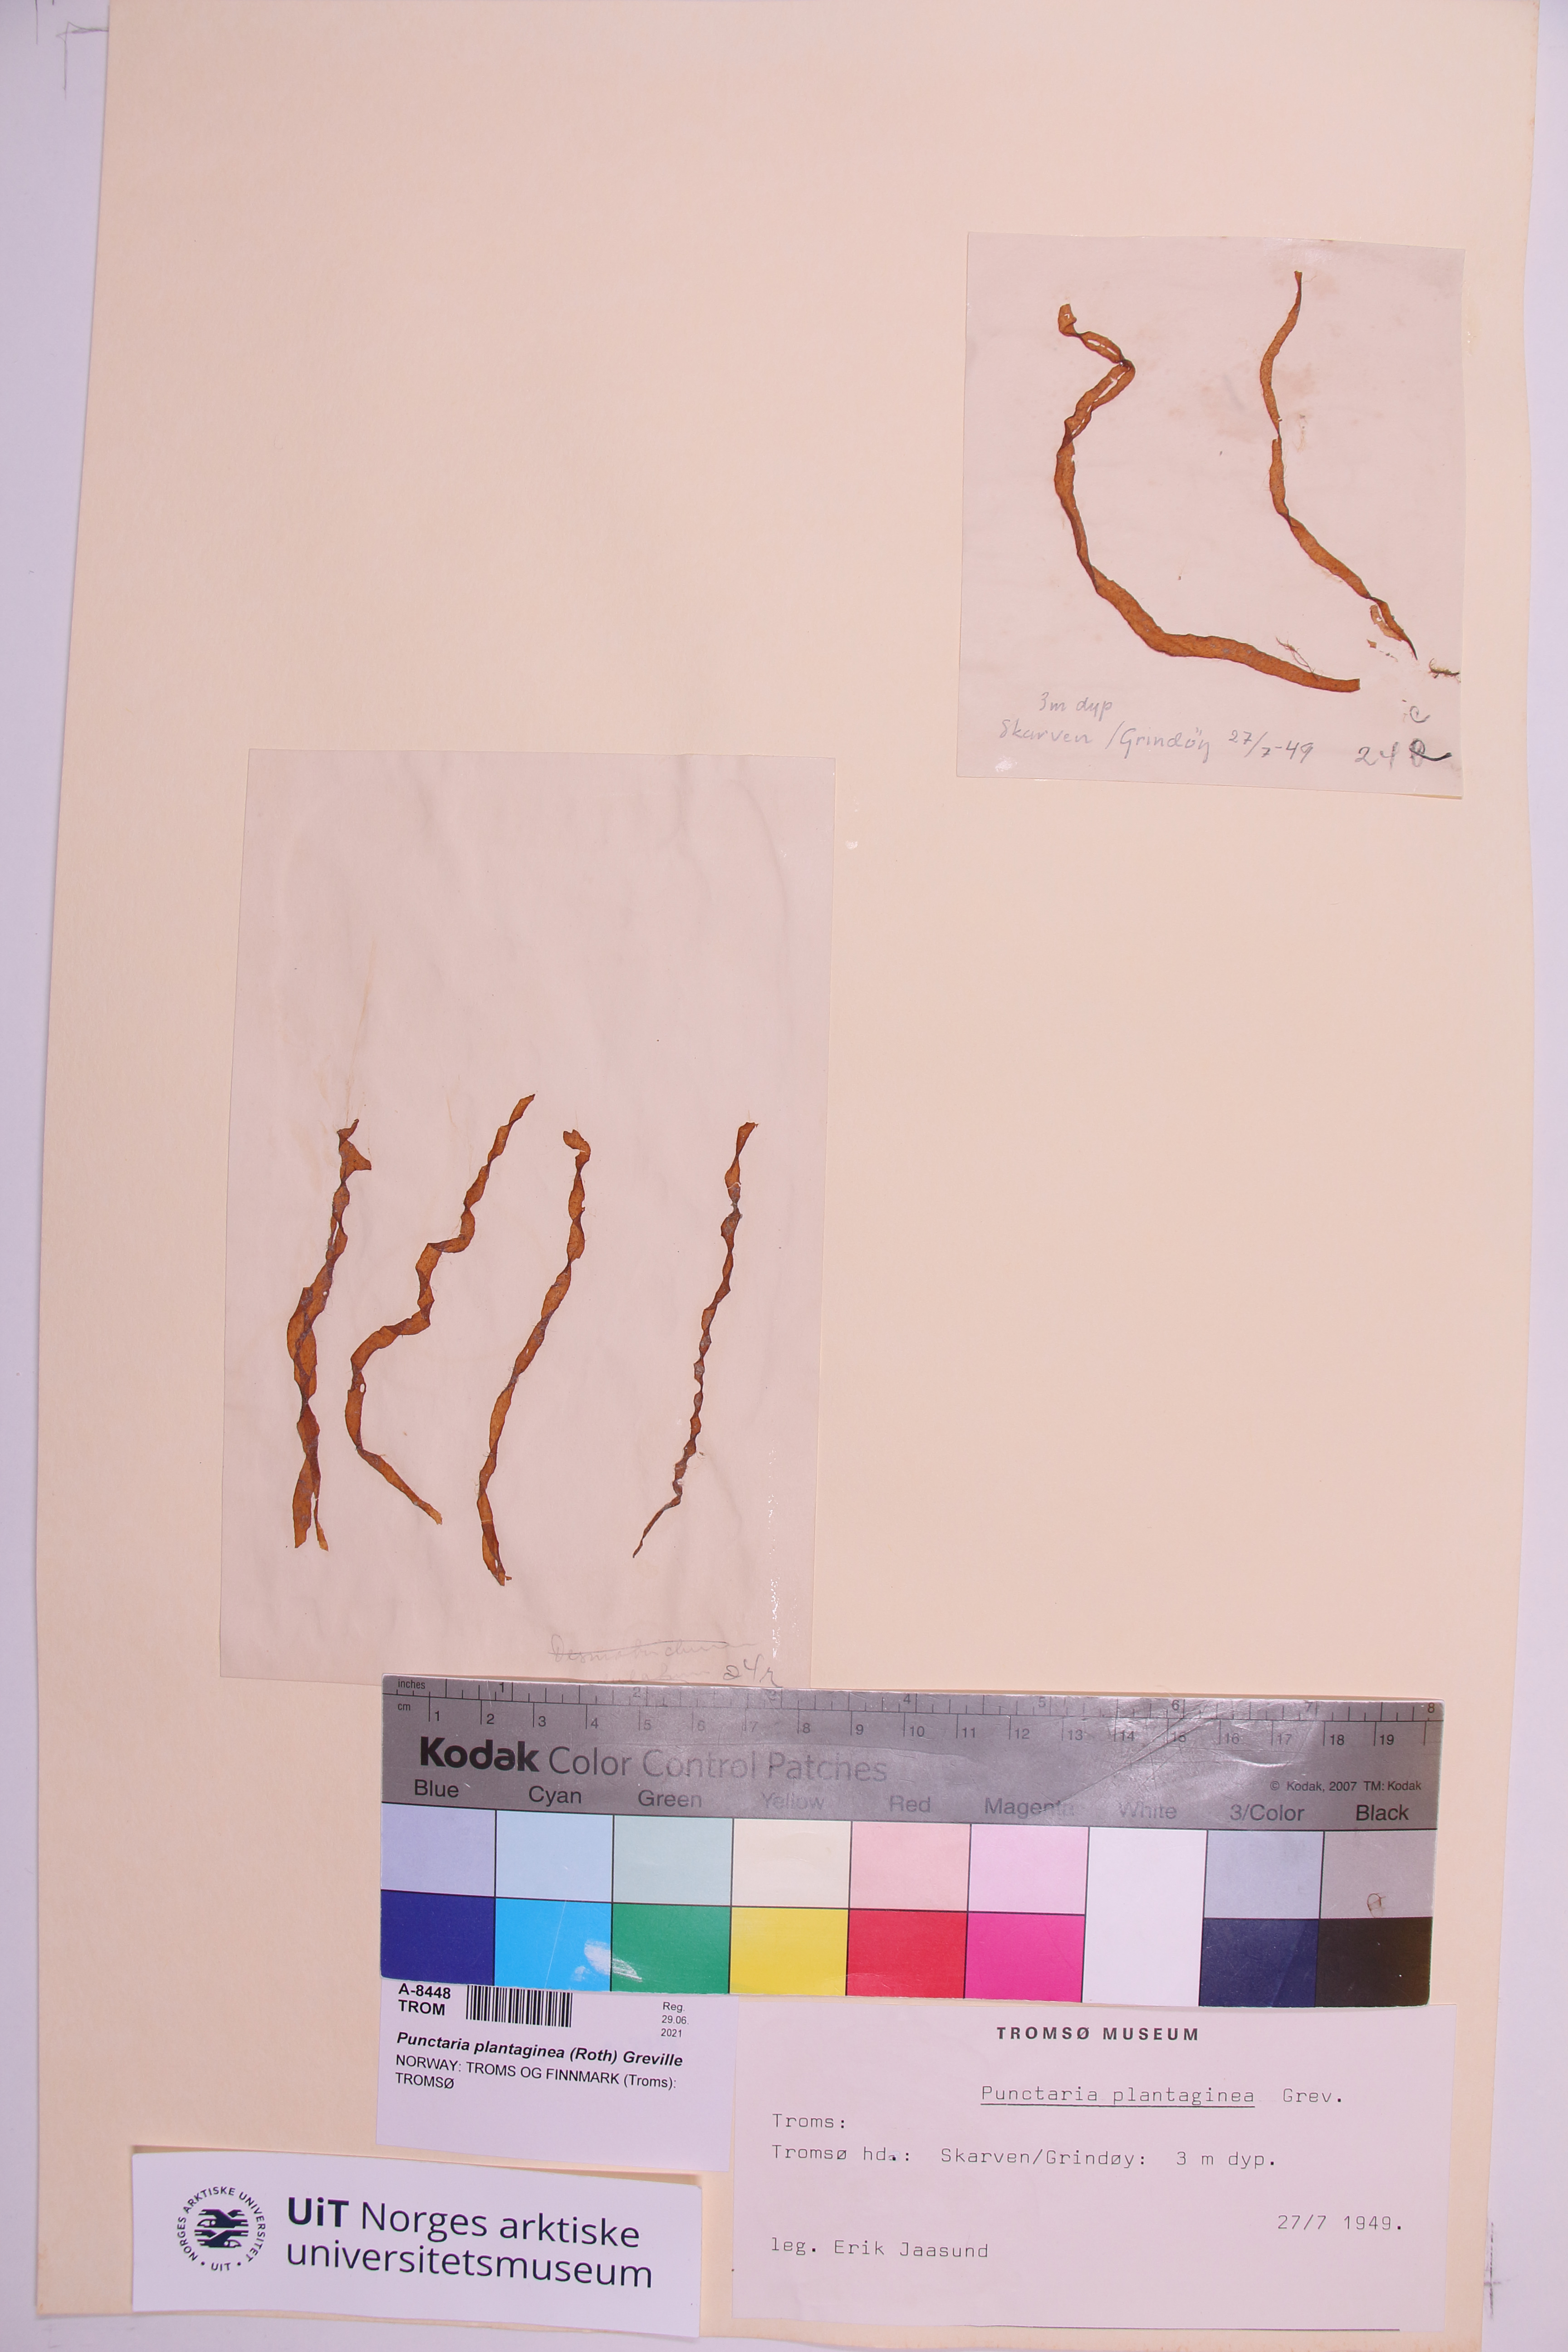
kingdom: Chromista
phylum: Ochrophyta
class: Phaeophyceae
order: Ectocarpales
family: Chordariaceae
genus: Punctaria
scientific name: Punctaria plantaginea
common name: Ribbon weed
